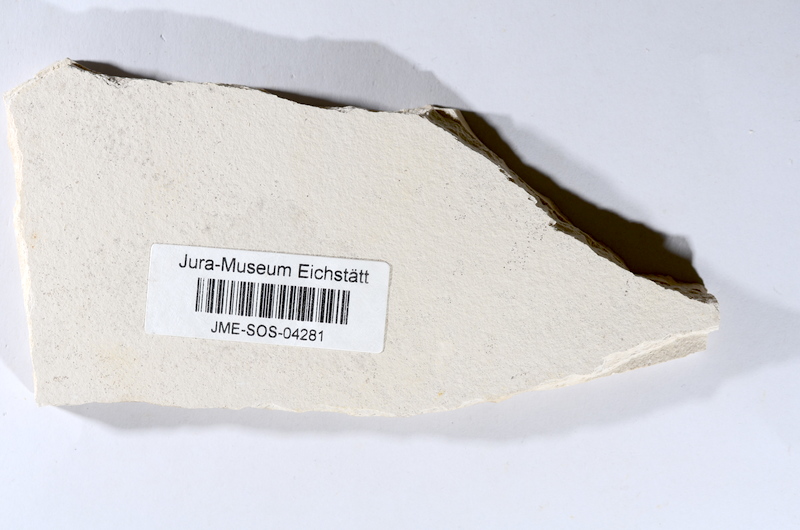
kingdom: Animalia
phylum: Chordata
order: Salmoniformes
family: Orthogonikleithridae
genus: Orthogonikleithrus
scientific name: Orthogonikleithrus hoelli
